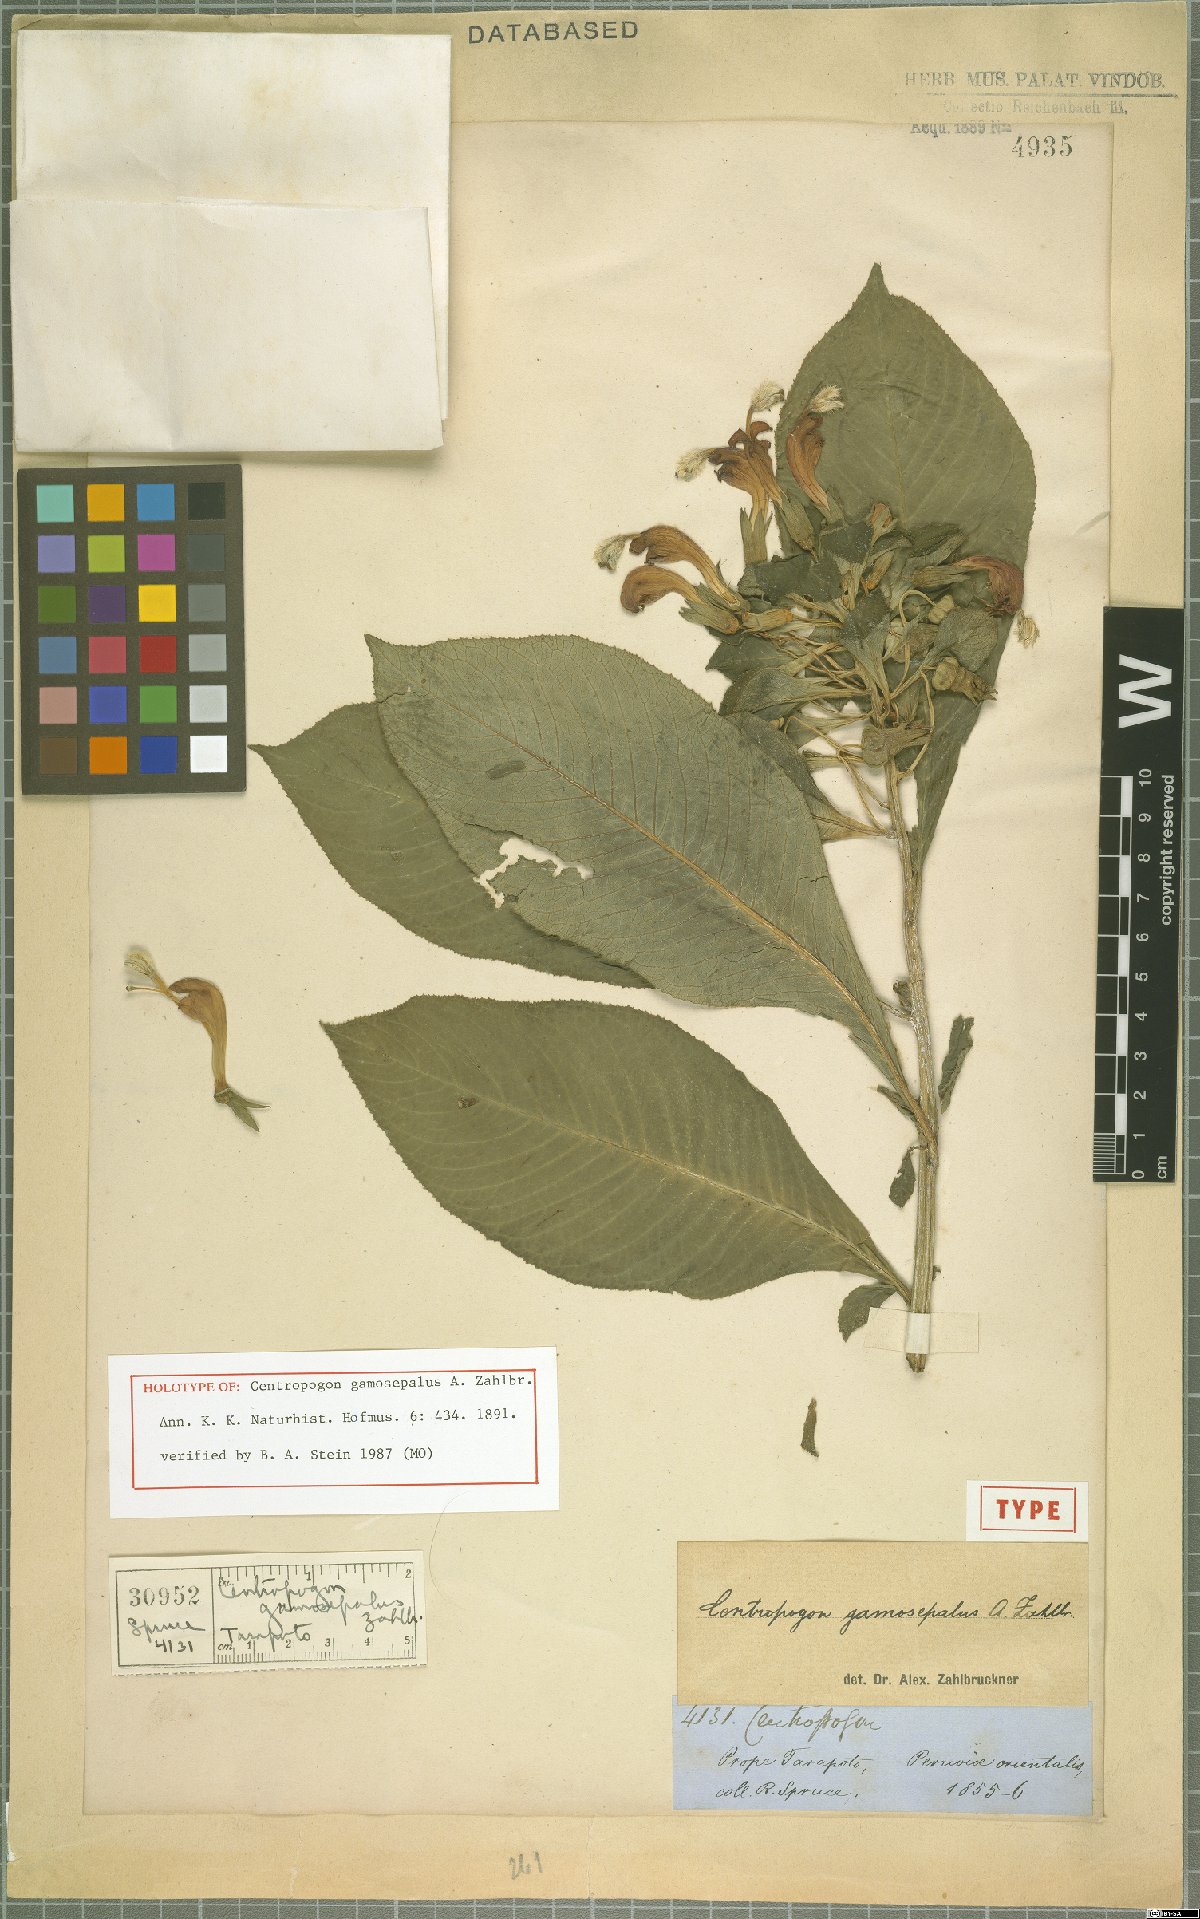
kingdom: Plantae
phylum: Tracheophyta
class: Magnoliopsida
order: Asterales
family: Campanulaceae
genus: Centropogon
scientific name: Centropogon gamosepalus
